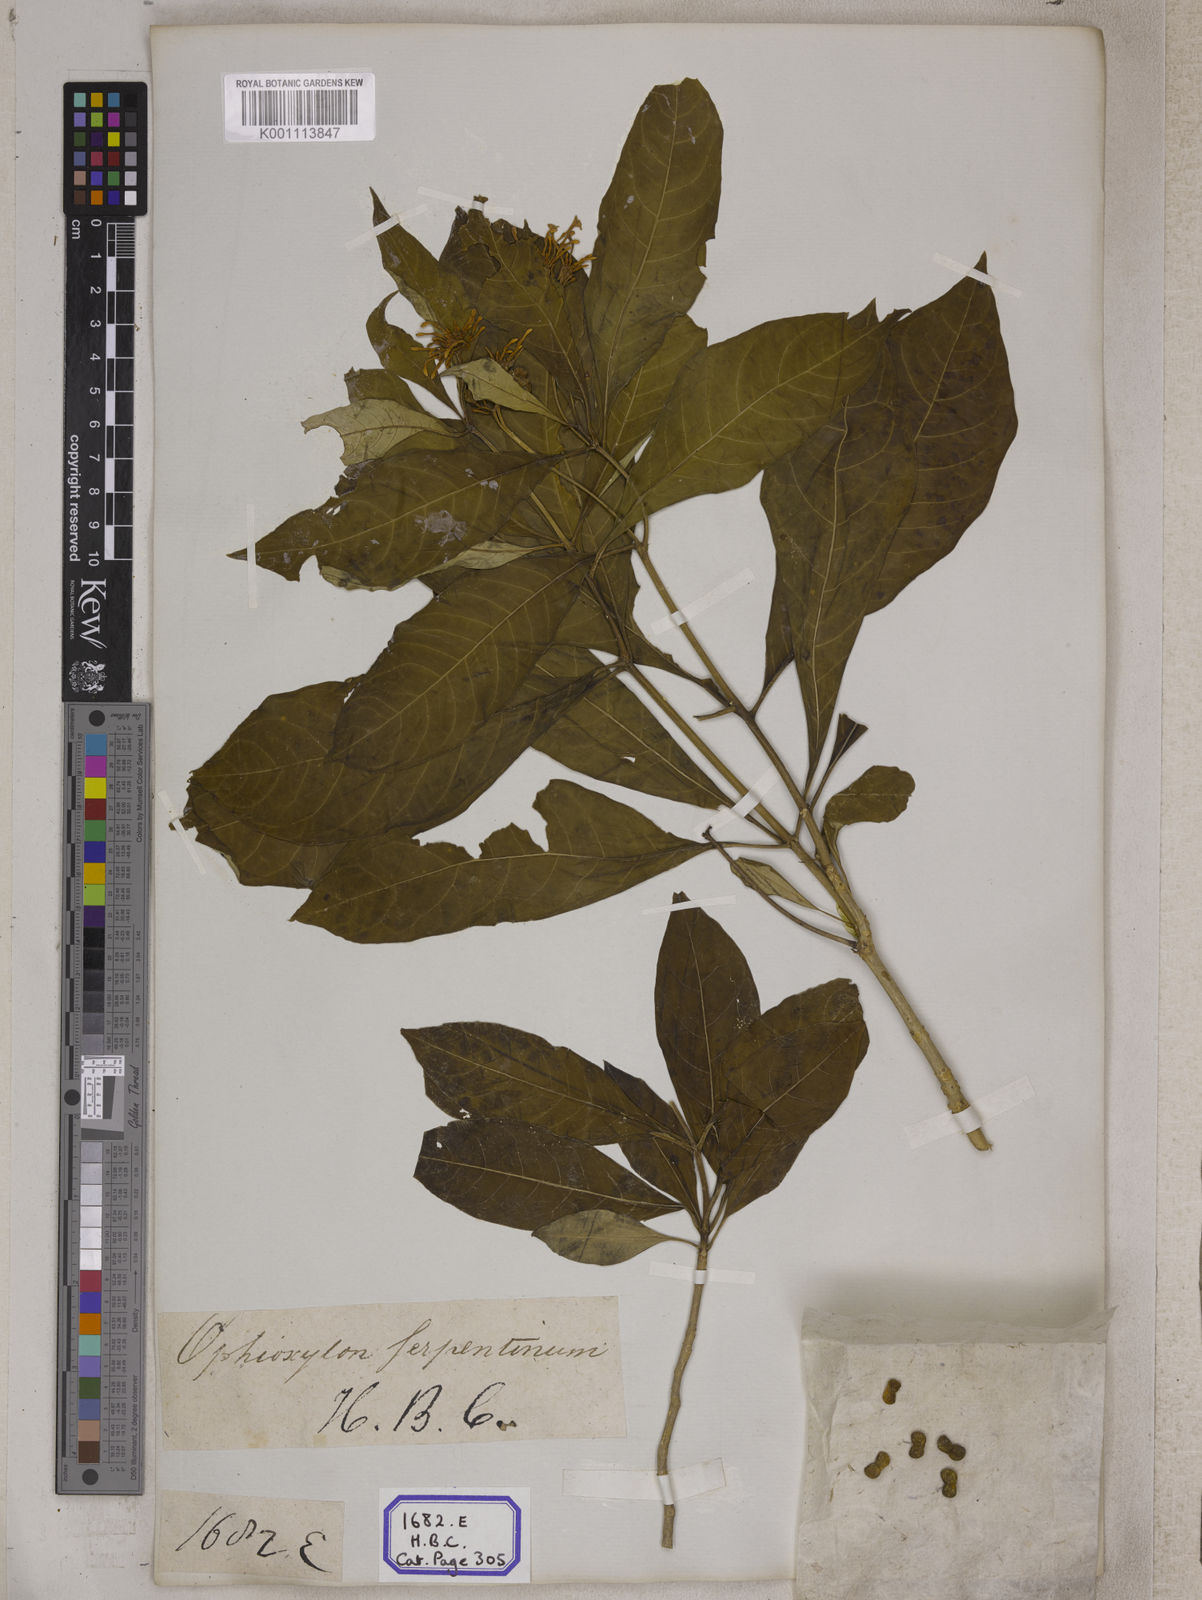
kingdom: Plantae
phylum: Tracheophyta
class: Magnoliopsida
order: Gentianales
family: Apocynaceae
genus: Rauvolfia
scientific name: Rauvolfia serpentina
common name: Ajmaline
